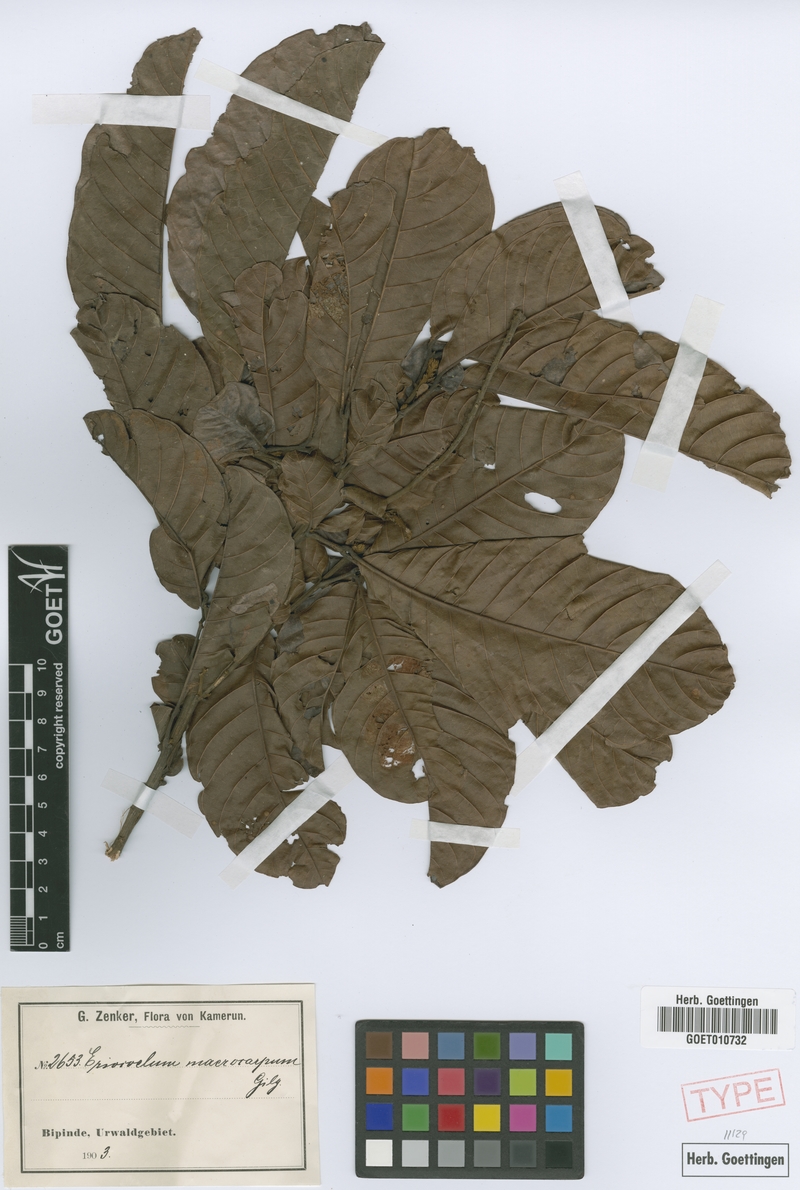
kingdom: Plantae
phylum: Tracheophyta
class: Magnoliopsida
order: Sapindales
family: Sapindaceae
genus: Eriocoelum
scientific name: Eriocoelum macrocarpum
